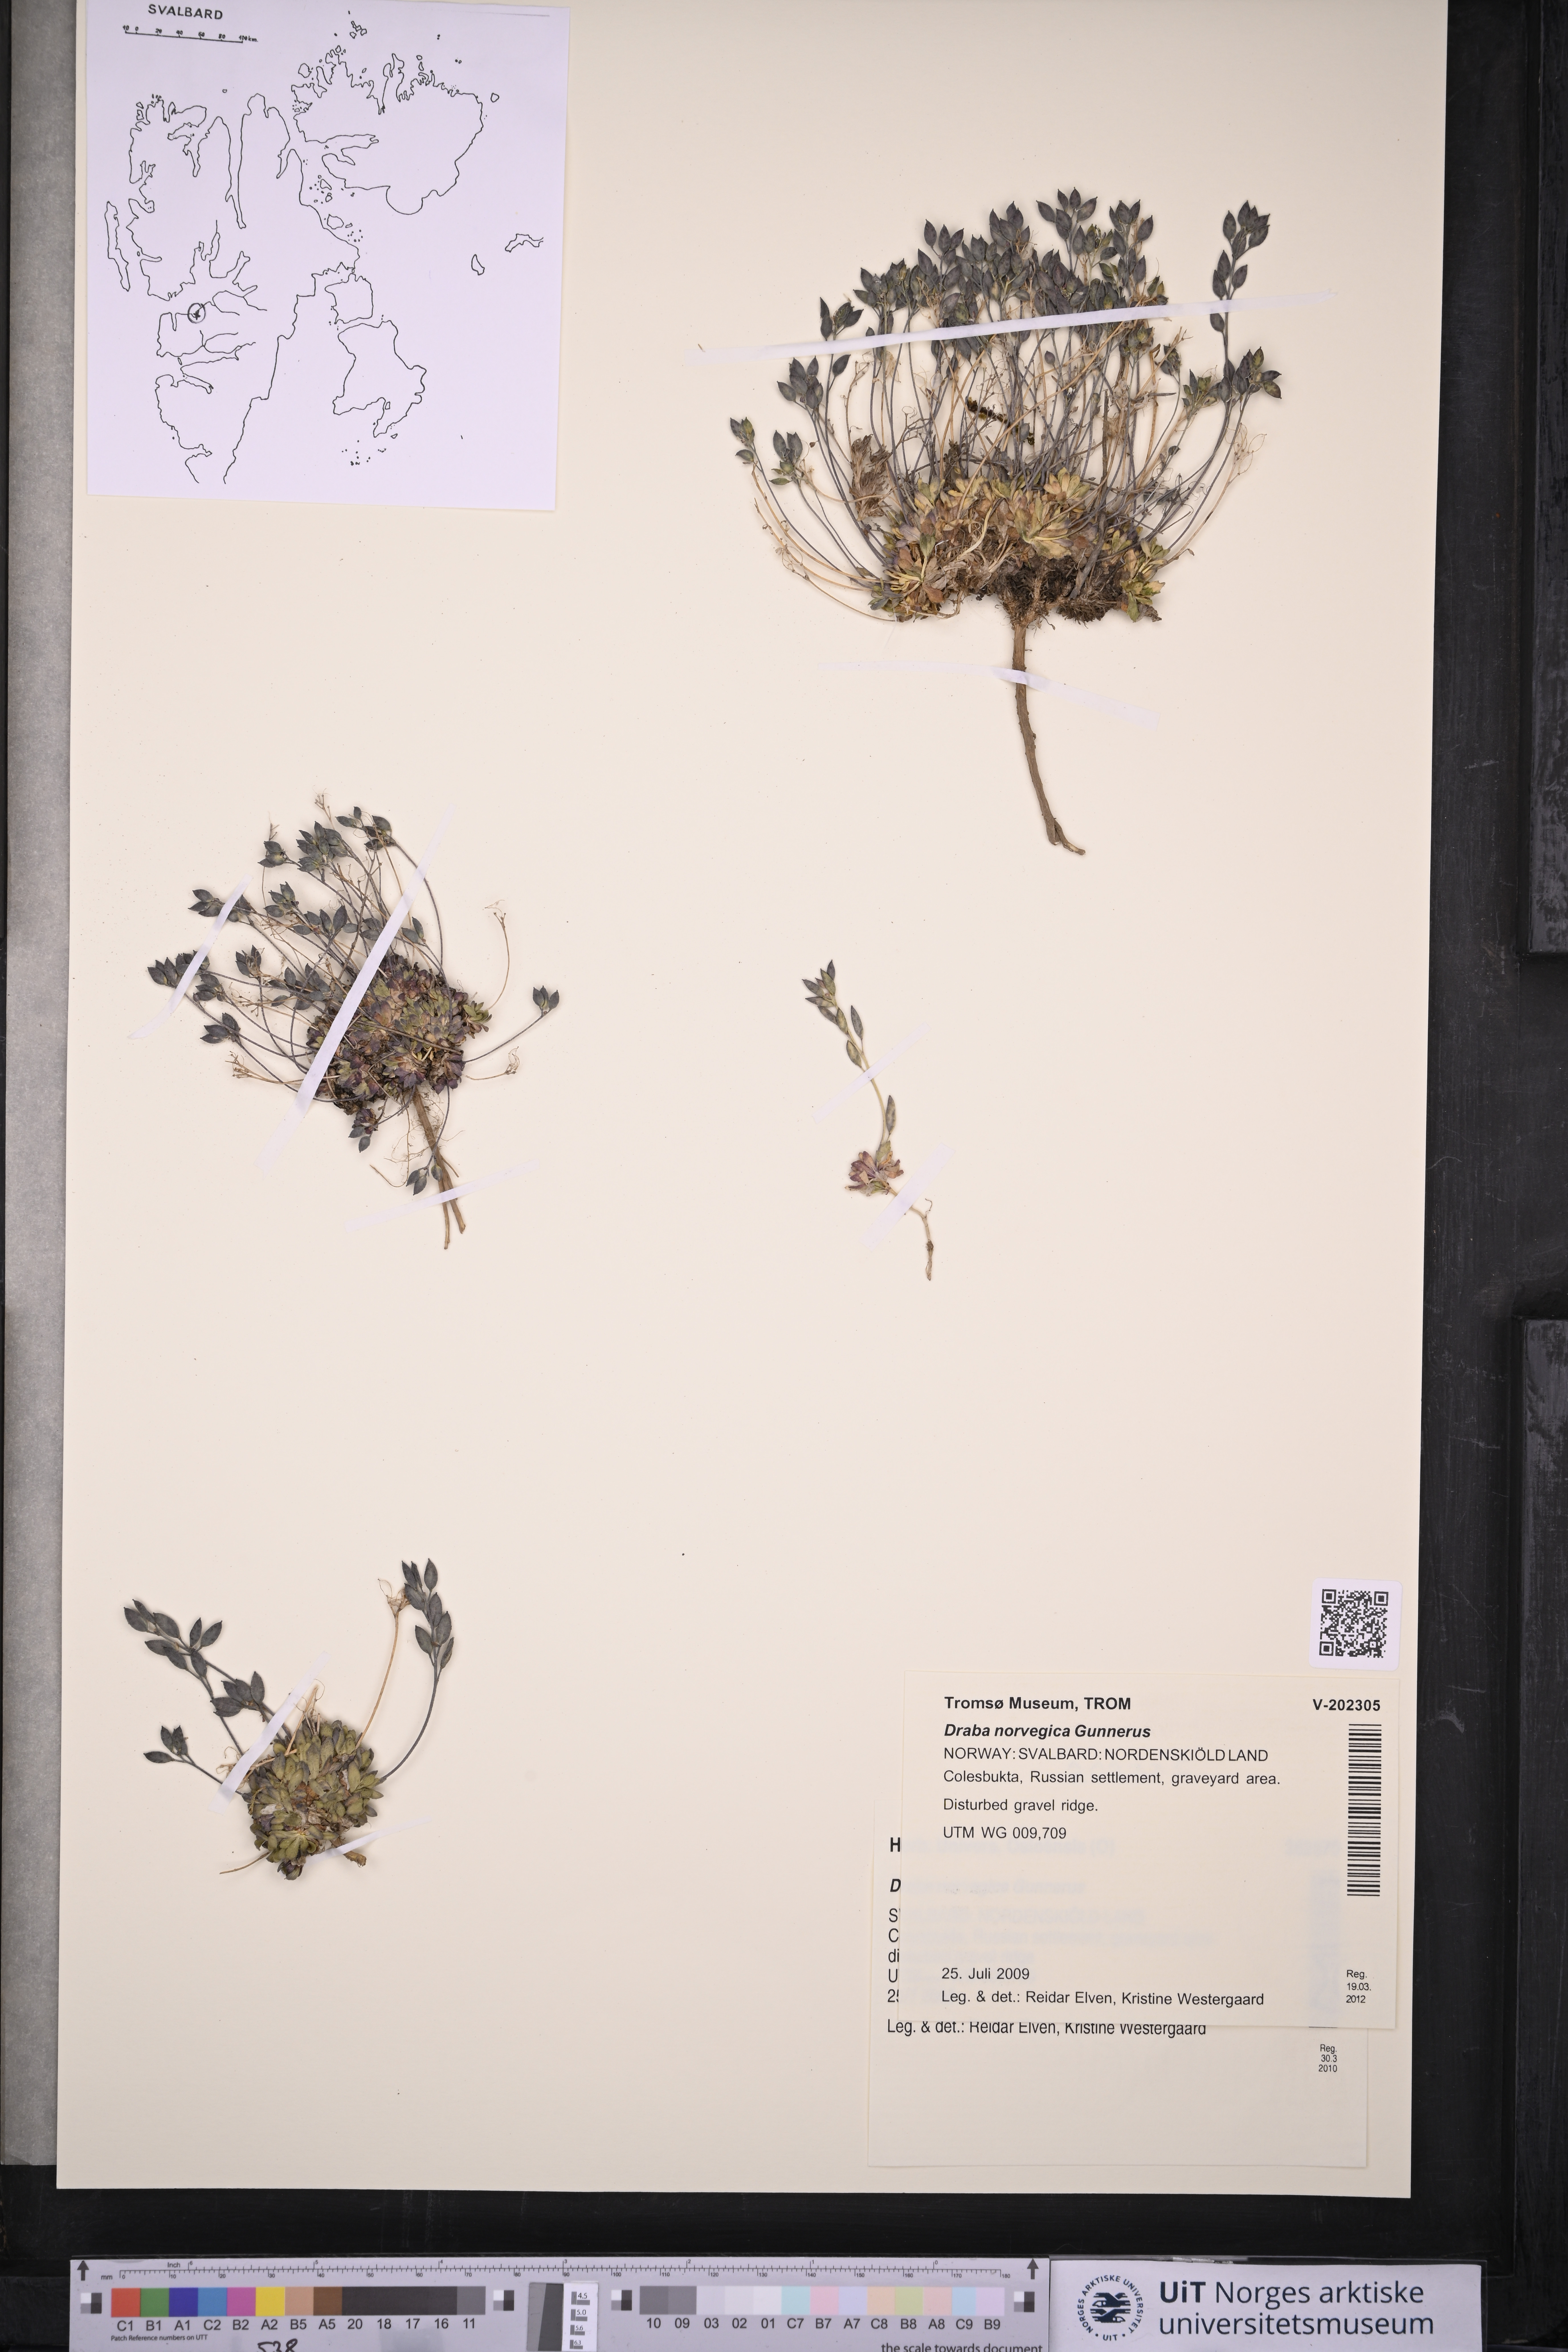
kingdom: Plantae
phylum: Tracheophyta
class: Magnoliopsida
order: Brassicales
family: Brassicaceae
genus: Draba
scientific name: Draba norvegica
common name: Rock whitlowgrass
